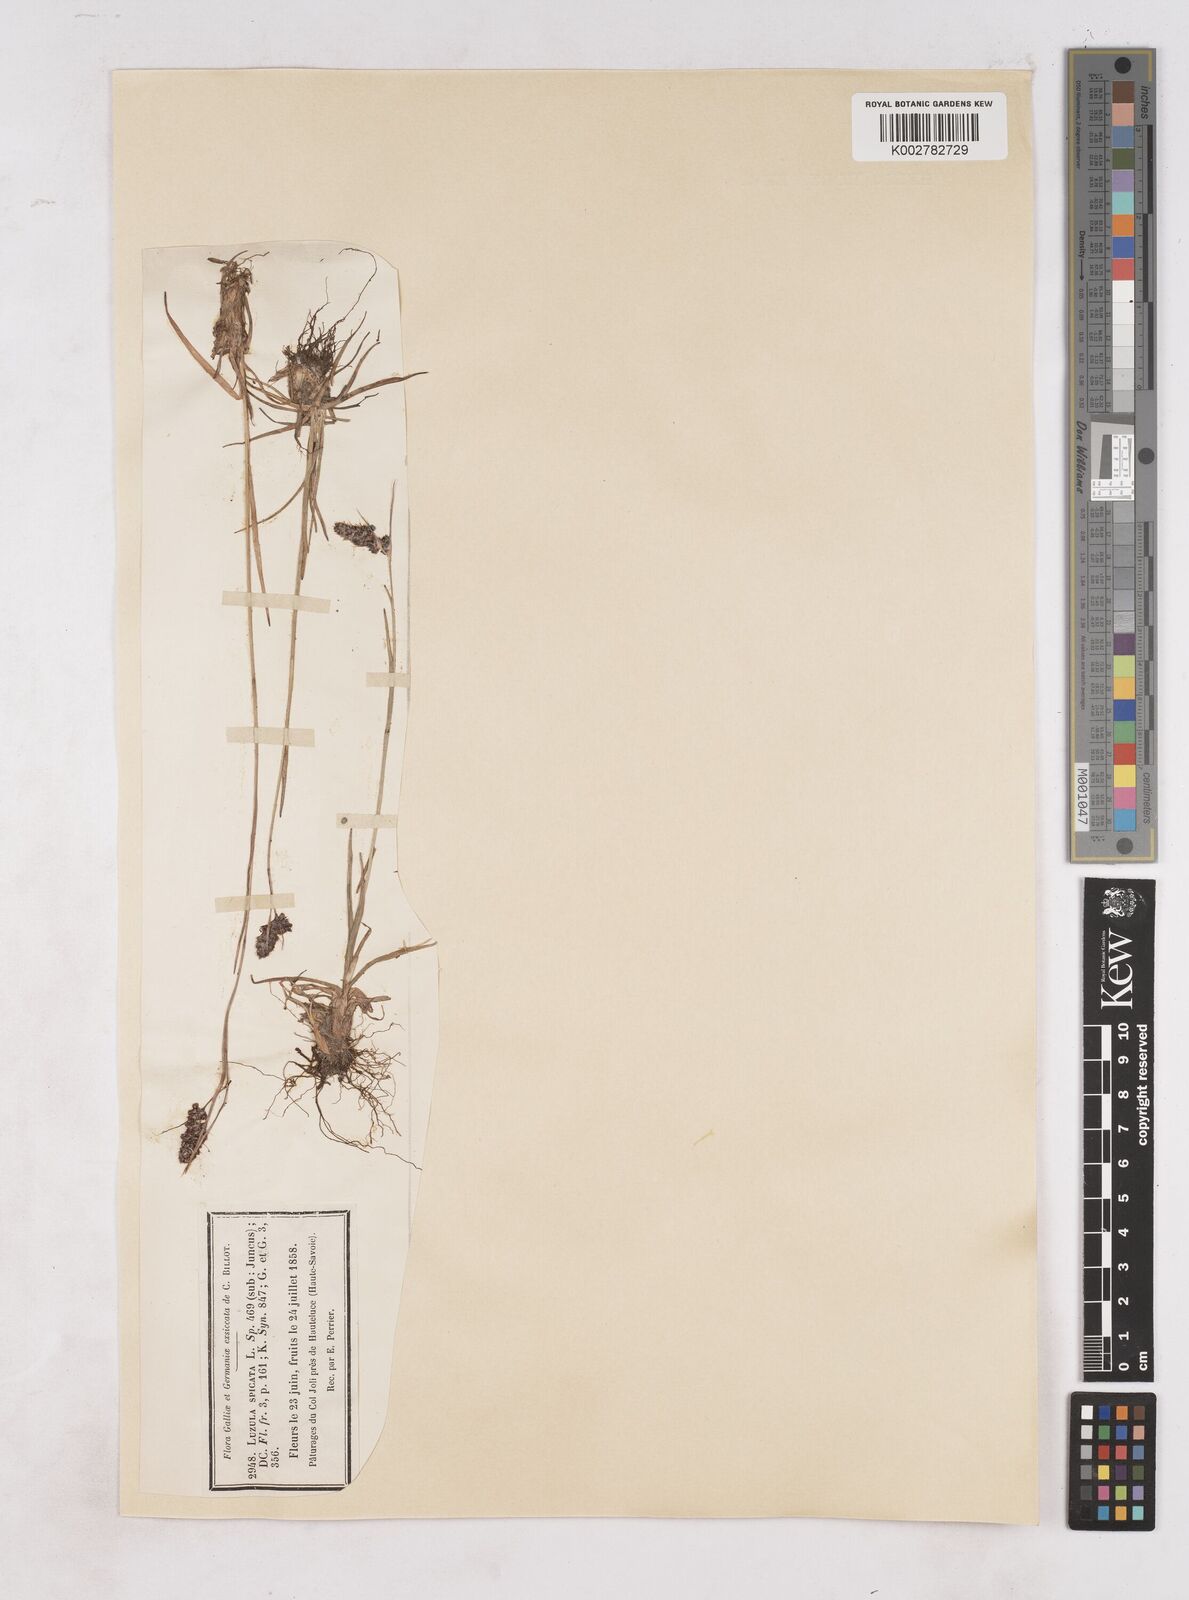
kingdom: Plantae
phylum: Tracheophyta
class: Liliopsida
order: Poales
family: Juncaceae
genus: Luzula
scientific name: Luzula spicata
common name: Spiked wood-rush
